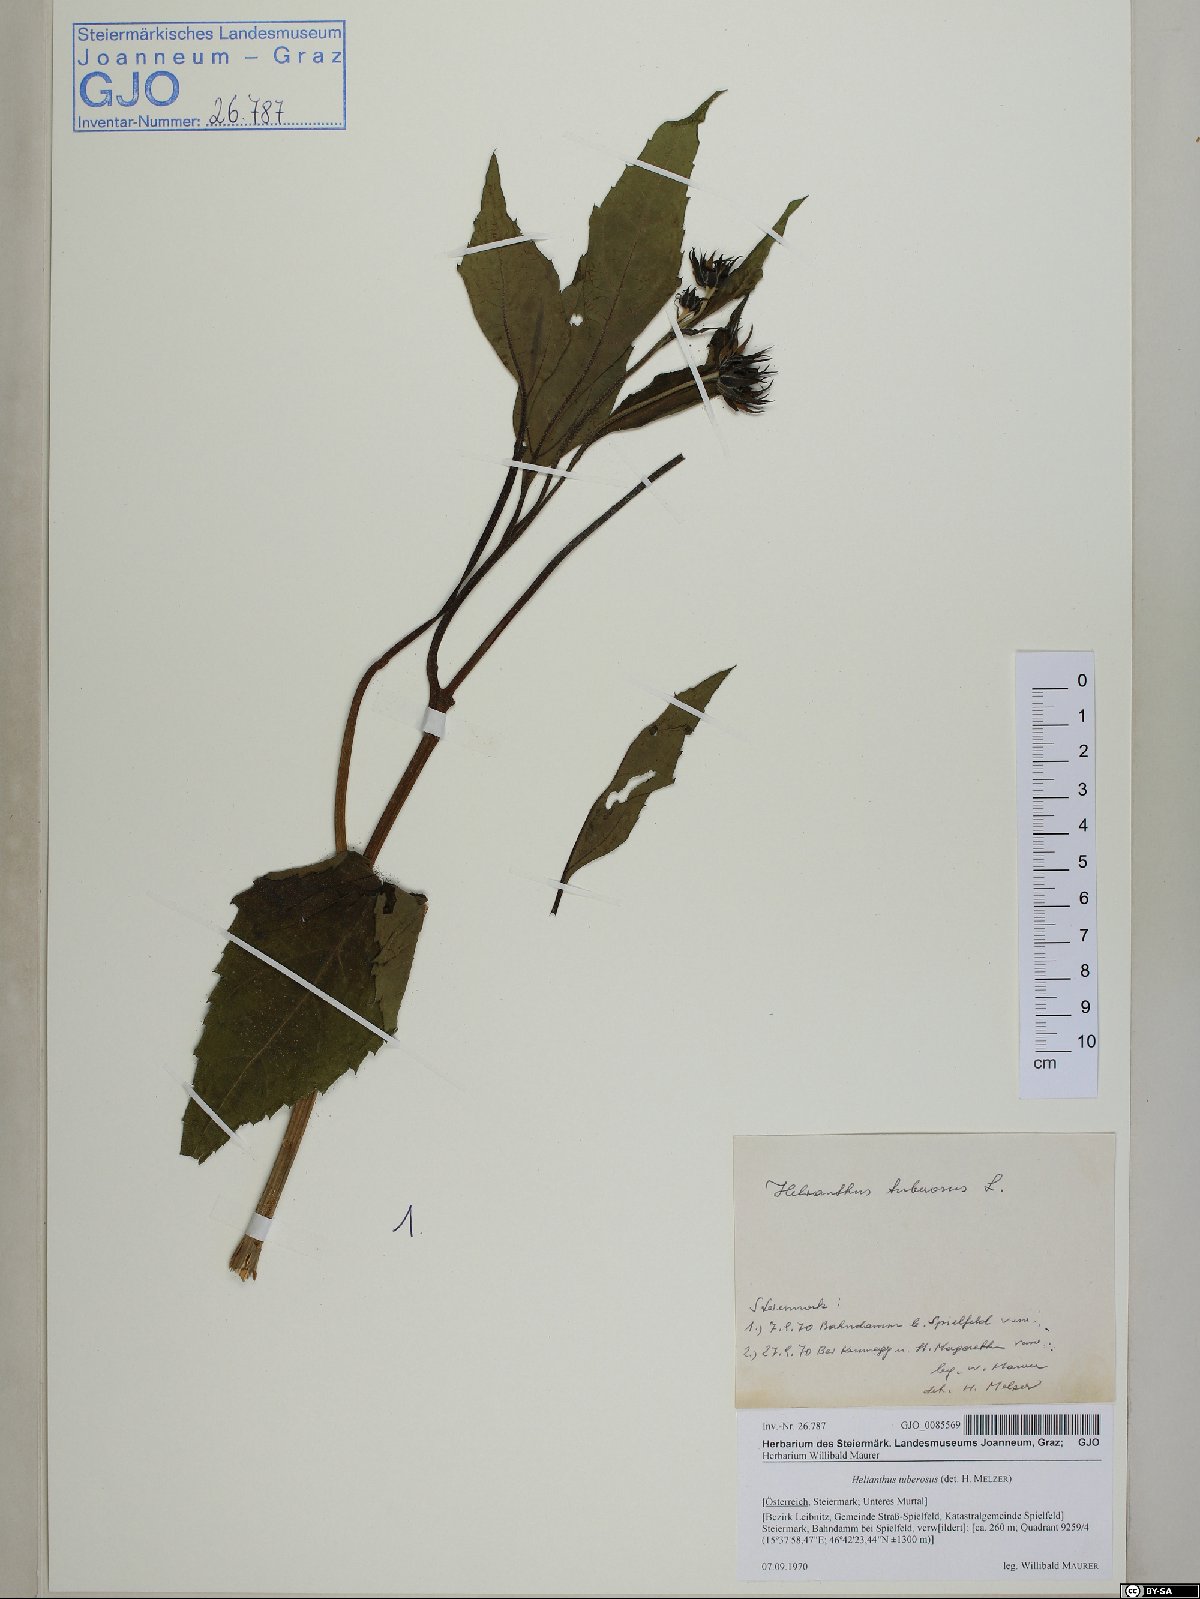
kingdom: Plantae
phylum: Tracheophyta
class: Magnoliopsida
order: Asterales
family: Asteraceae
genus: Helianthus
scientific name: Helianthus tuberosus
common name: Jerusalem artichoke
